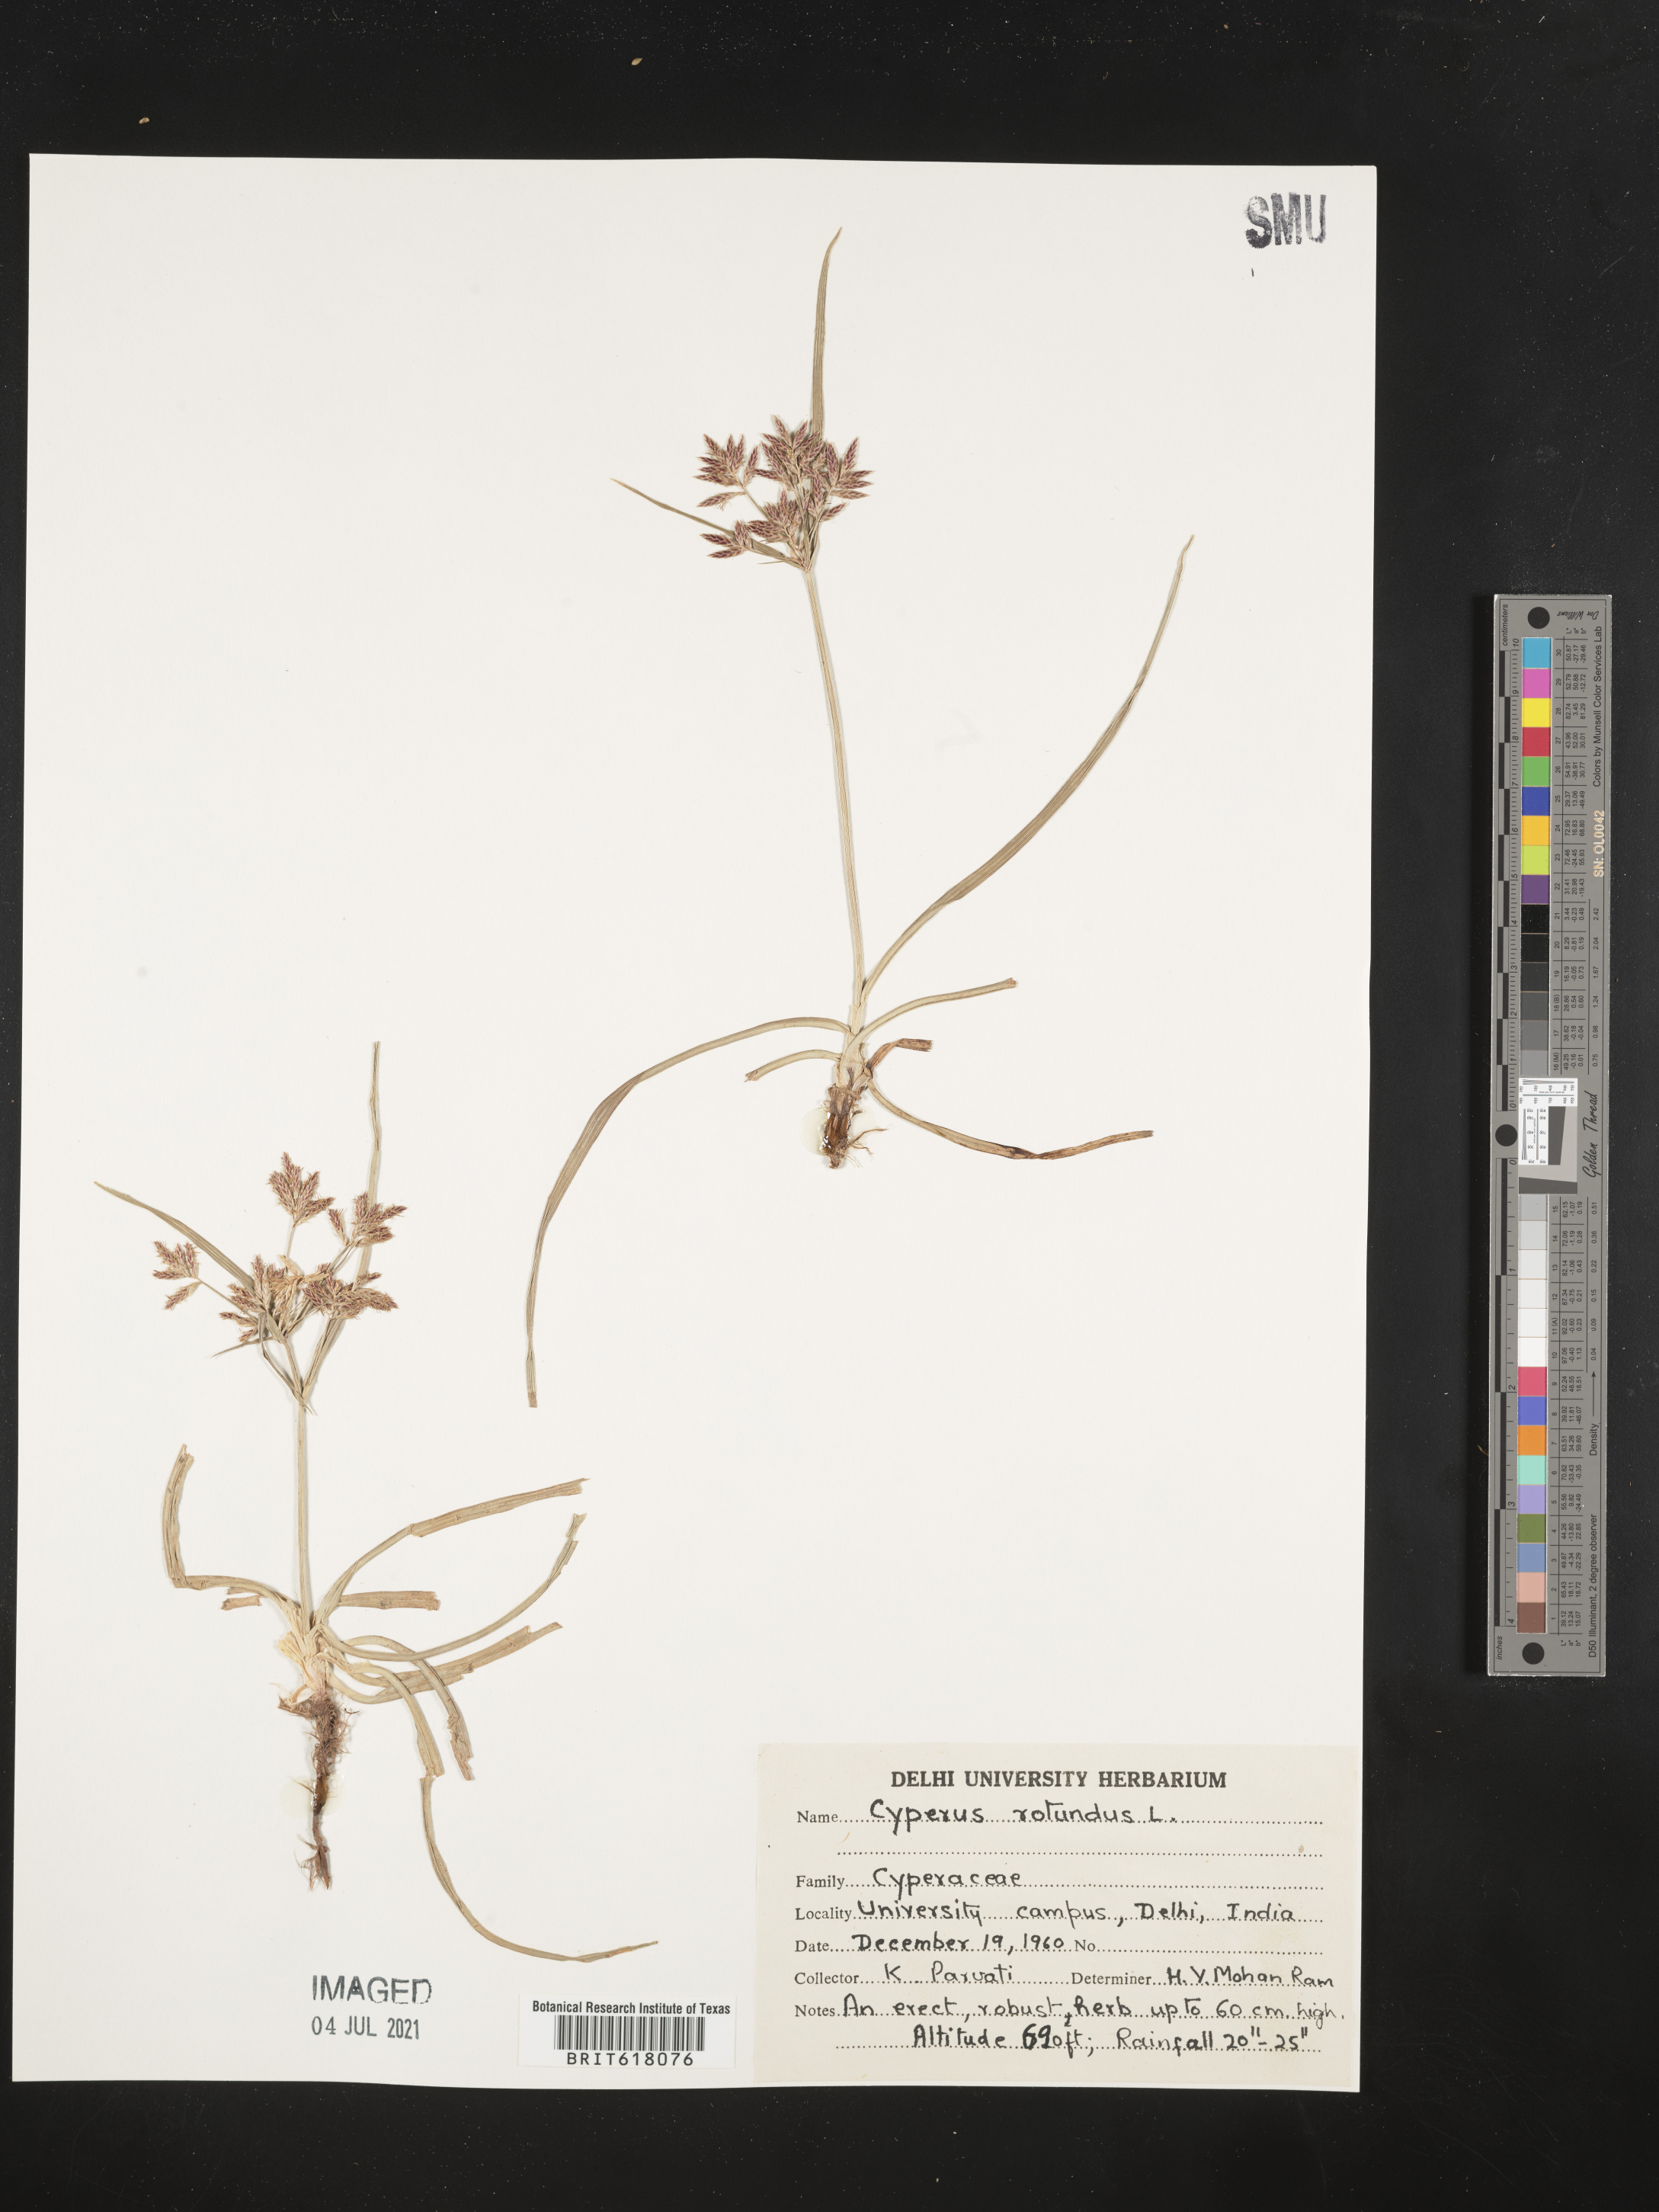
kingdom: Plantae
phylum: Tracheophyta
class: Liliopsida
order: Poales
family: Cyperaceae
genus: Cyperus
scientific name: Cyperus rotundus
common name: Nutgrass
